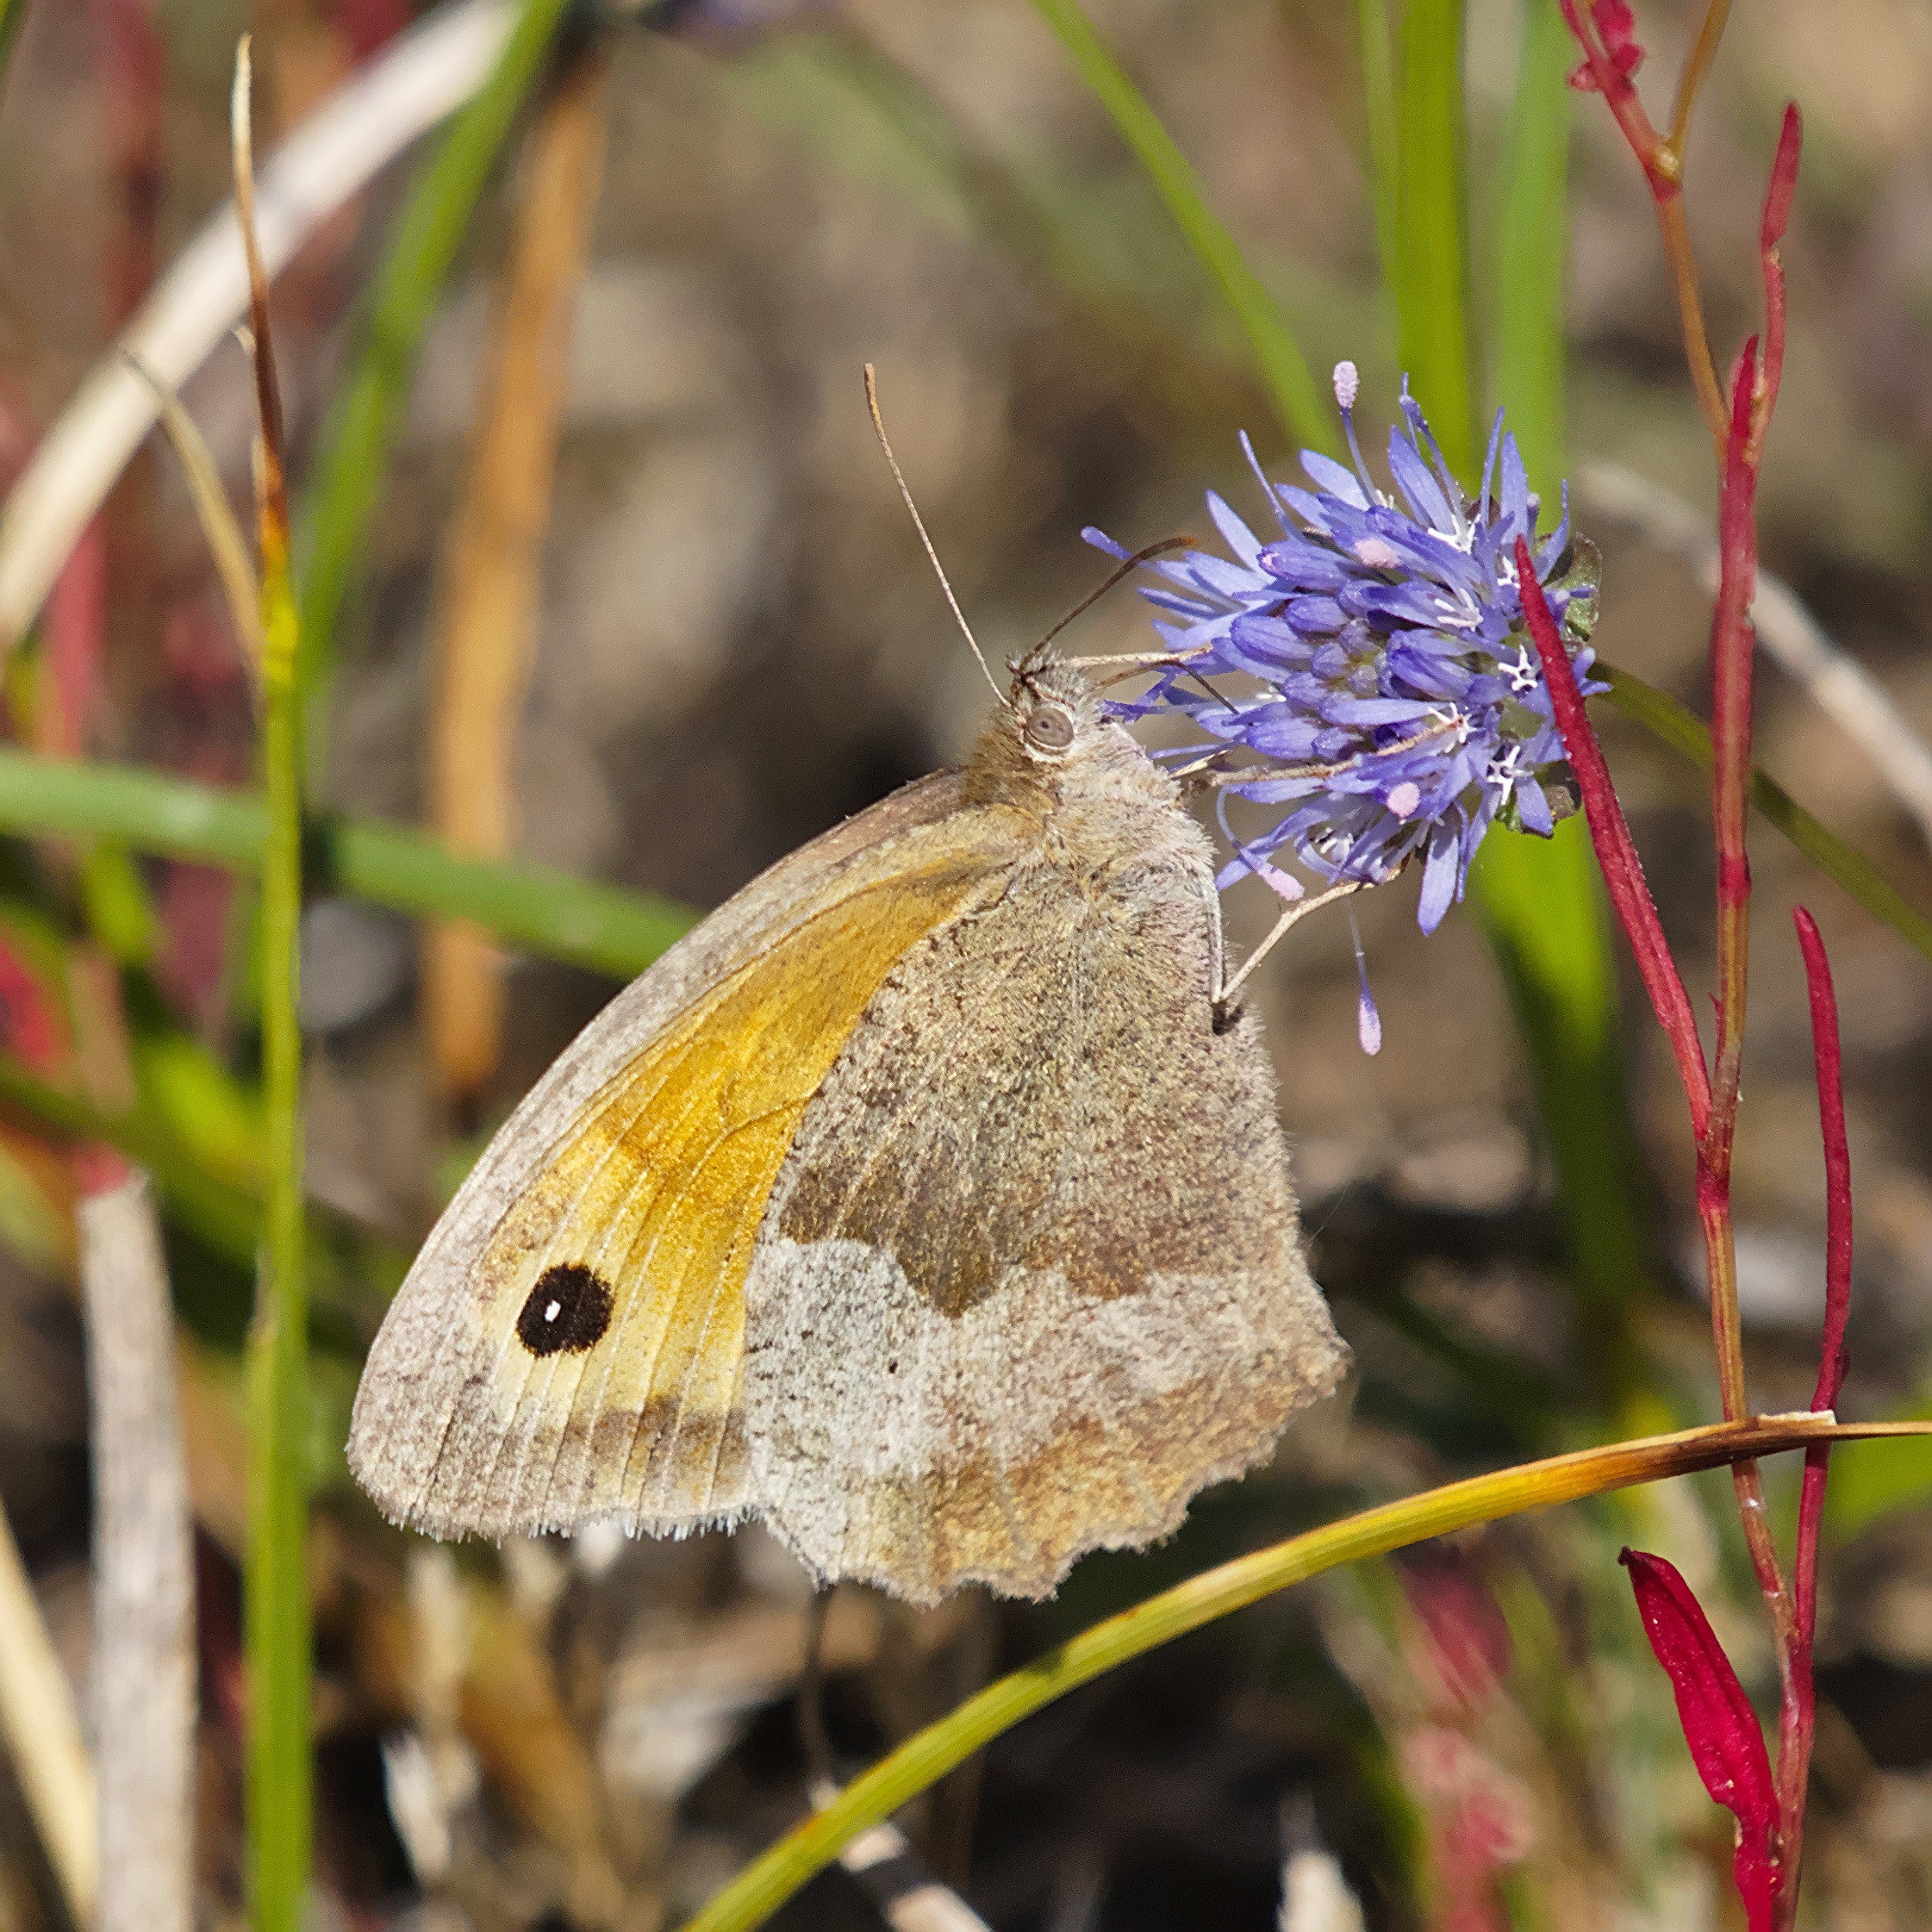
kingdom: Animalia
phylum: Arthropoda
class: Insecta
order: Lepidoptera
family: Nymphalidae
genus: Maniola
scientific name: Maniola jurtina
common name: Græsrandøje
